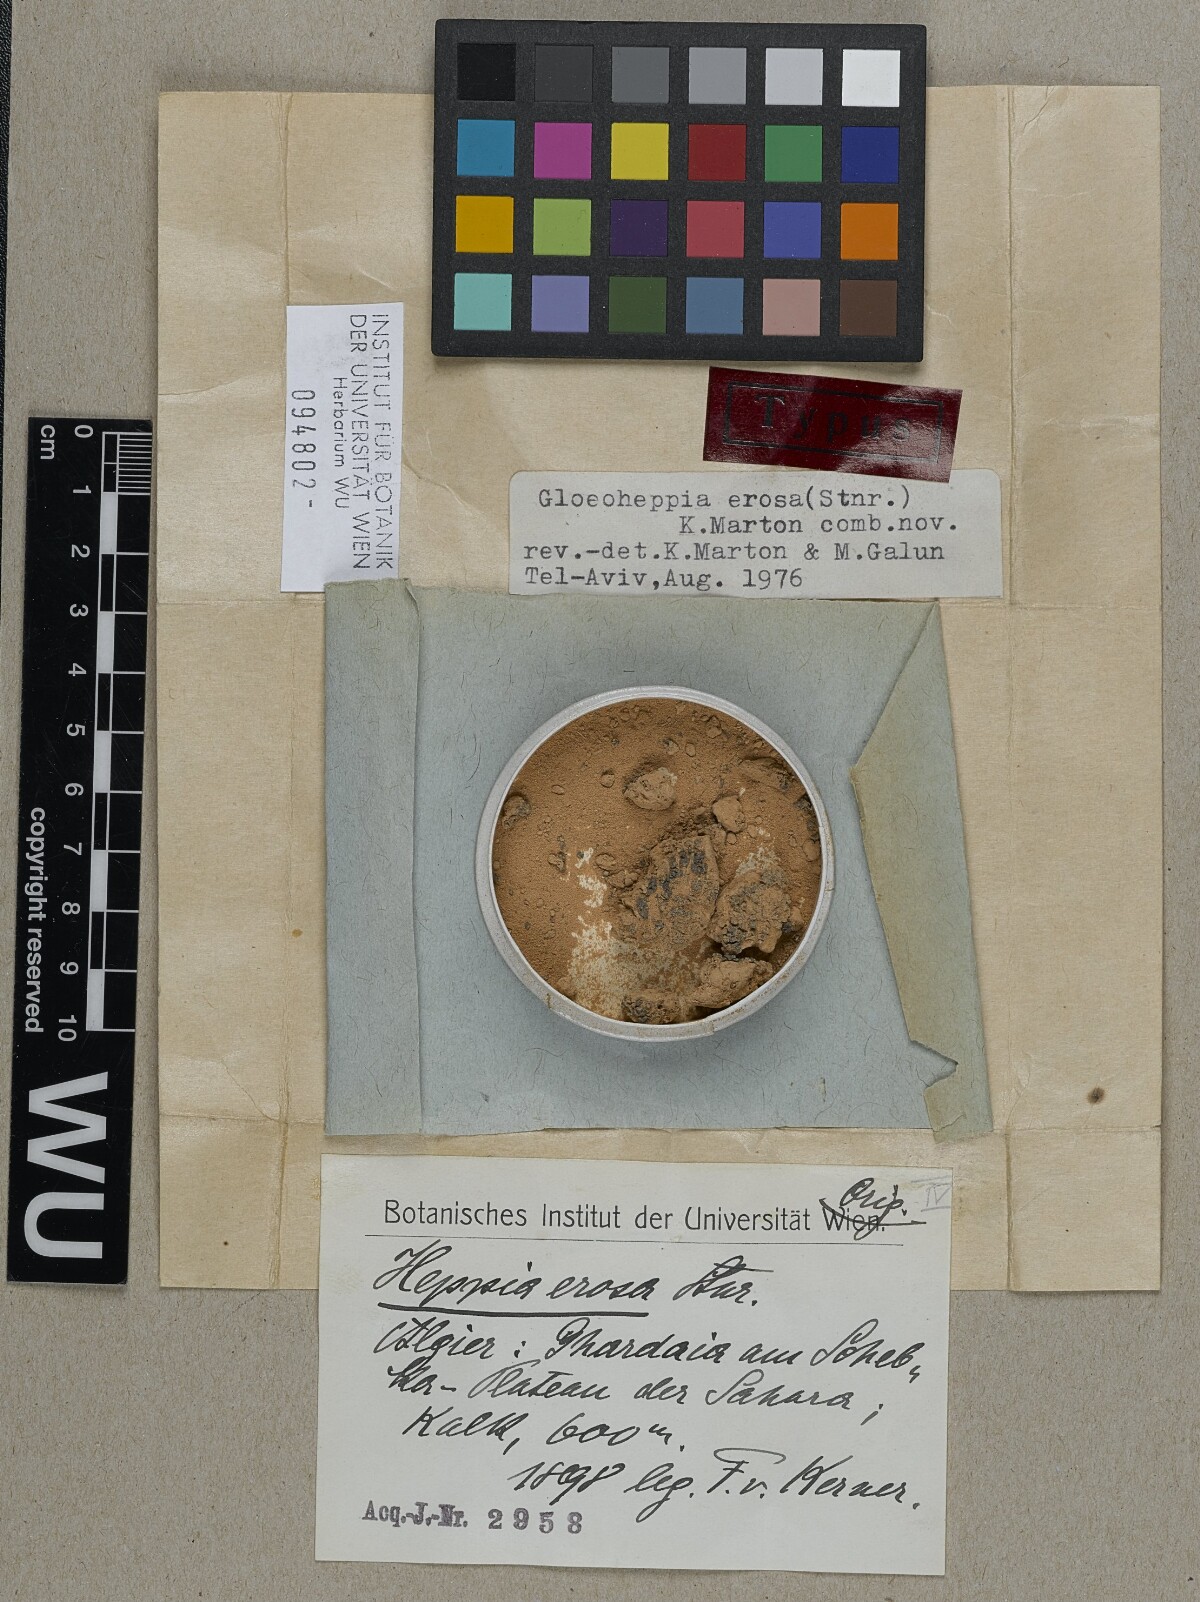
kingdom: Fungi
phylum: Ascomycota
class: Lichinomycetes
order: Lichinales
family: Gloeoheppiaceae
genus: Gloeoheppia
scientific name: Gloeoheppia erosa
